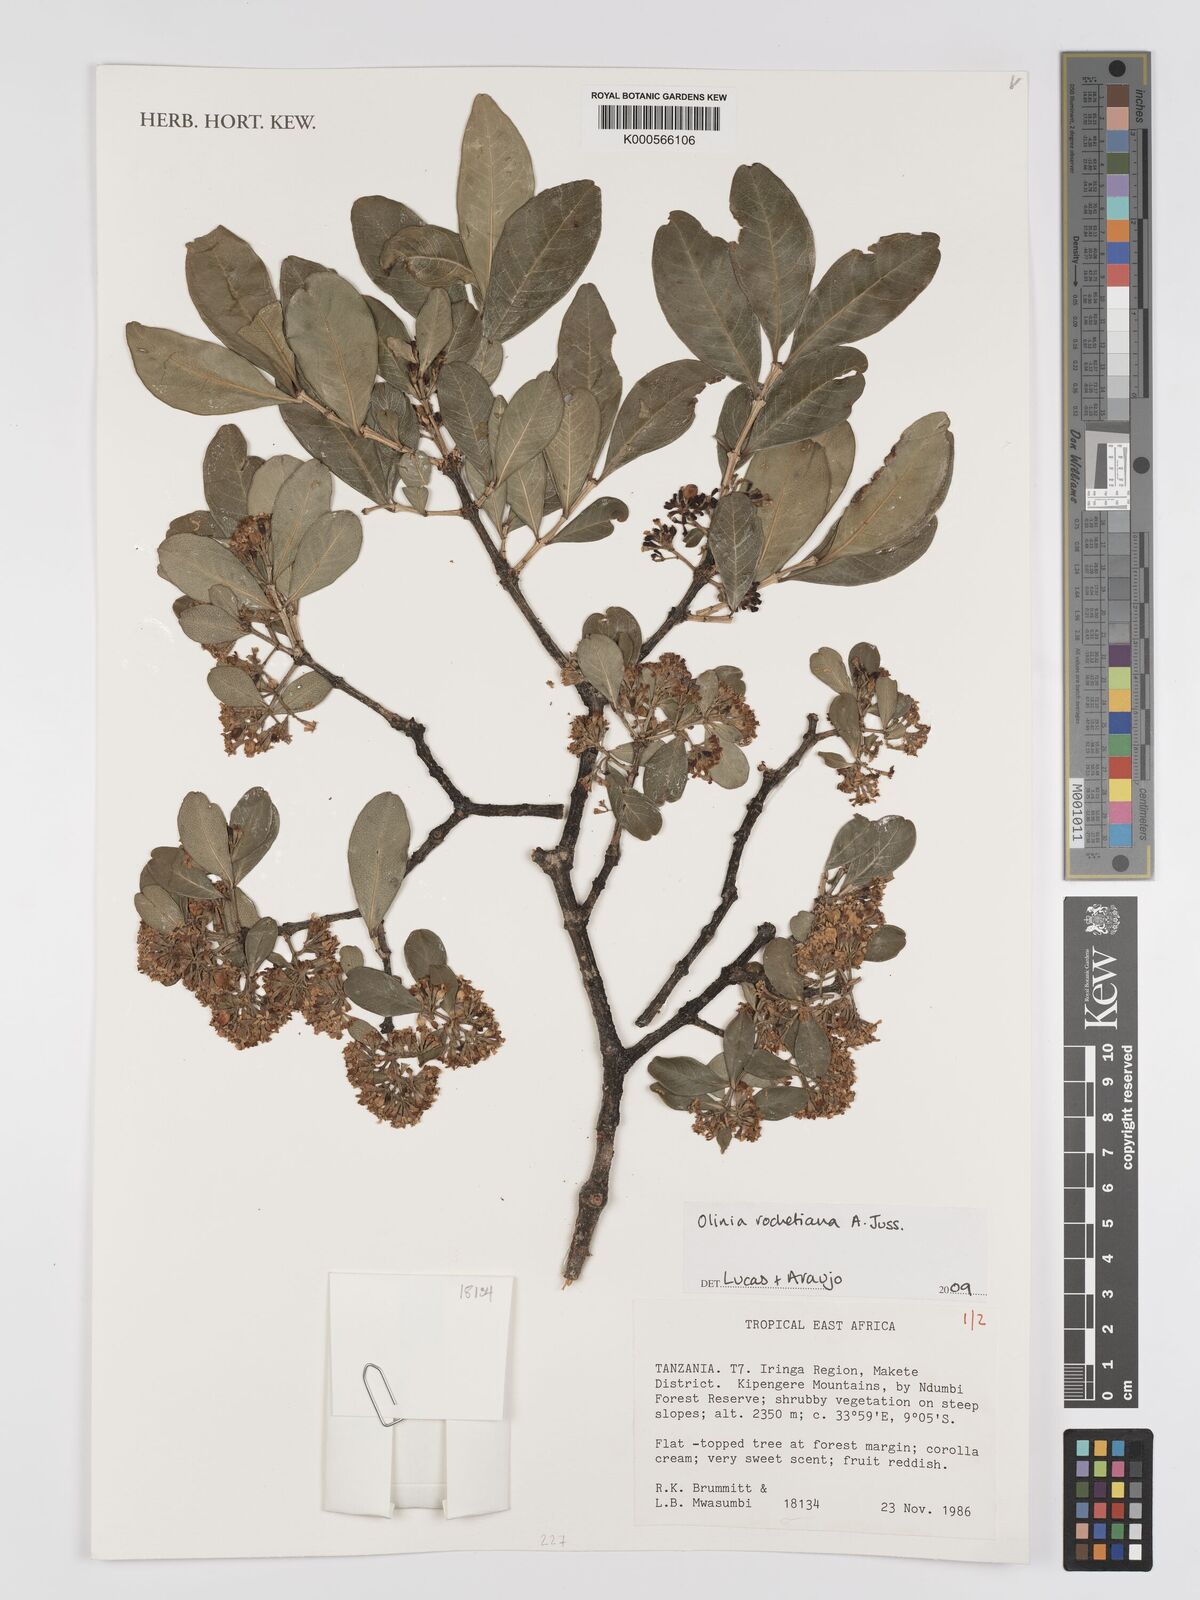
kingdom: Plantae
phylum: Tracheophyta
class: Magnoliopsida
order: Myrtales
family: Oliniaceae
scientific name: Oliniaceae
